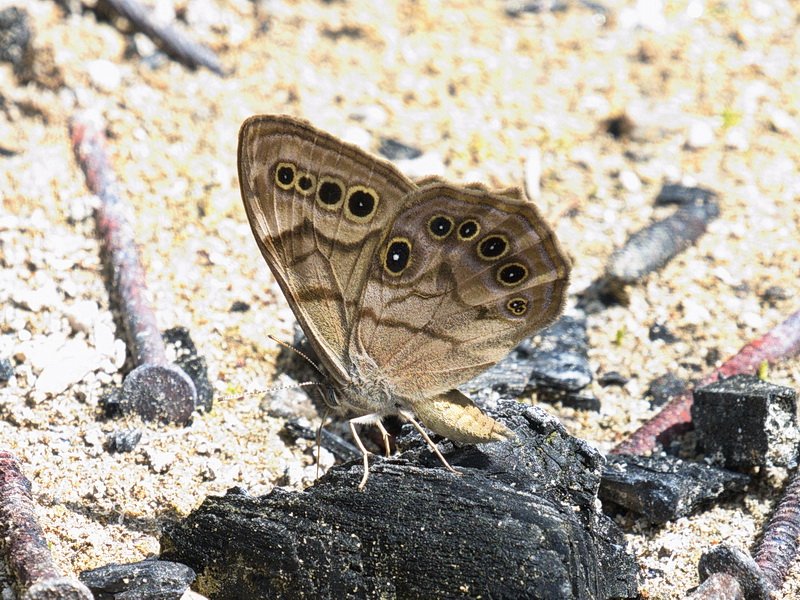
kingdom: Animalia
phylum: Arthropoda
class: Insecta
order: Lepidoptera
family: Nymphalidae
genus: Lethe
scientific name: Lethe anthedon
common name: Northern Pearly-Eye
